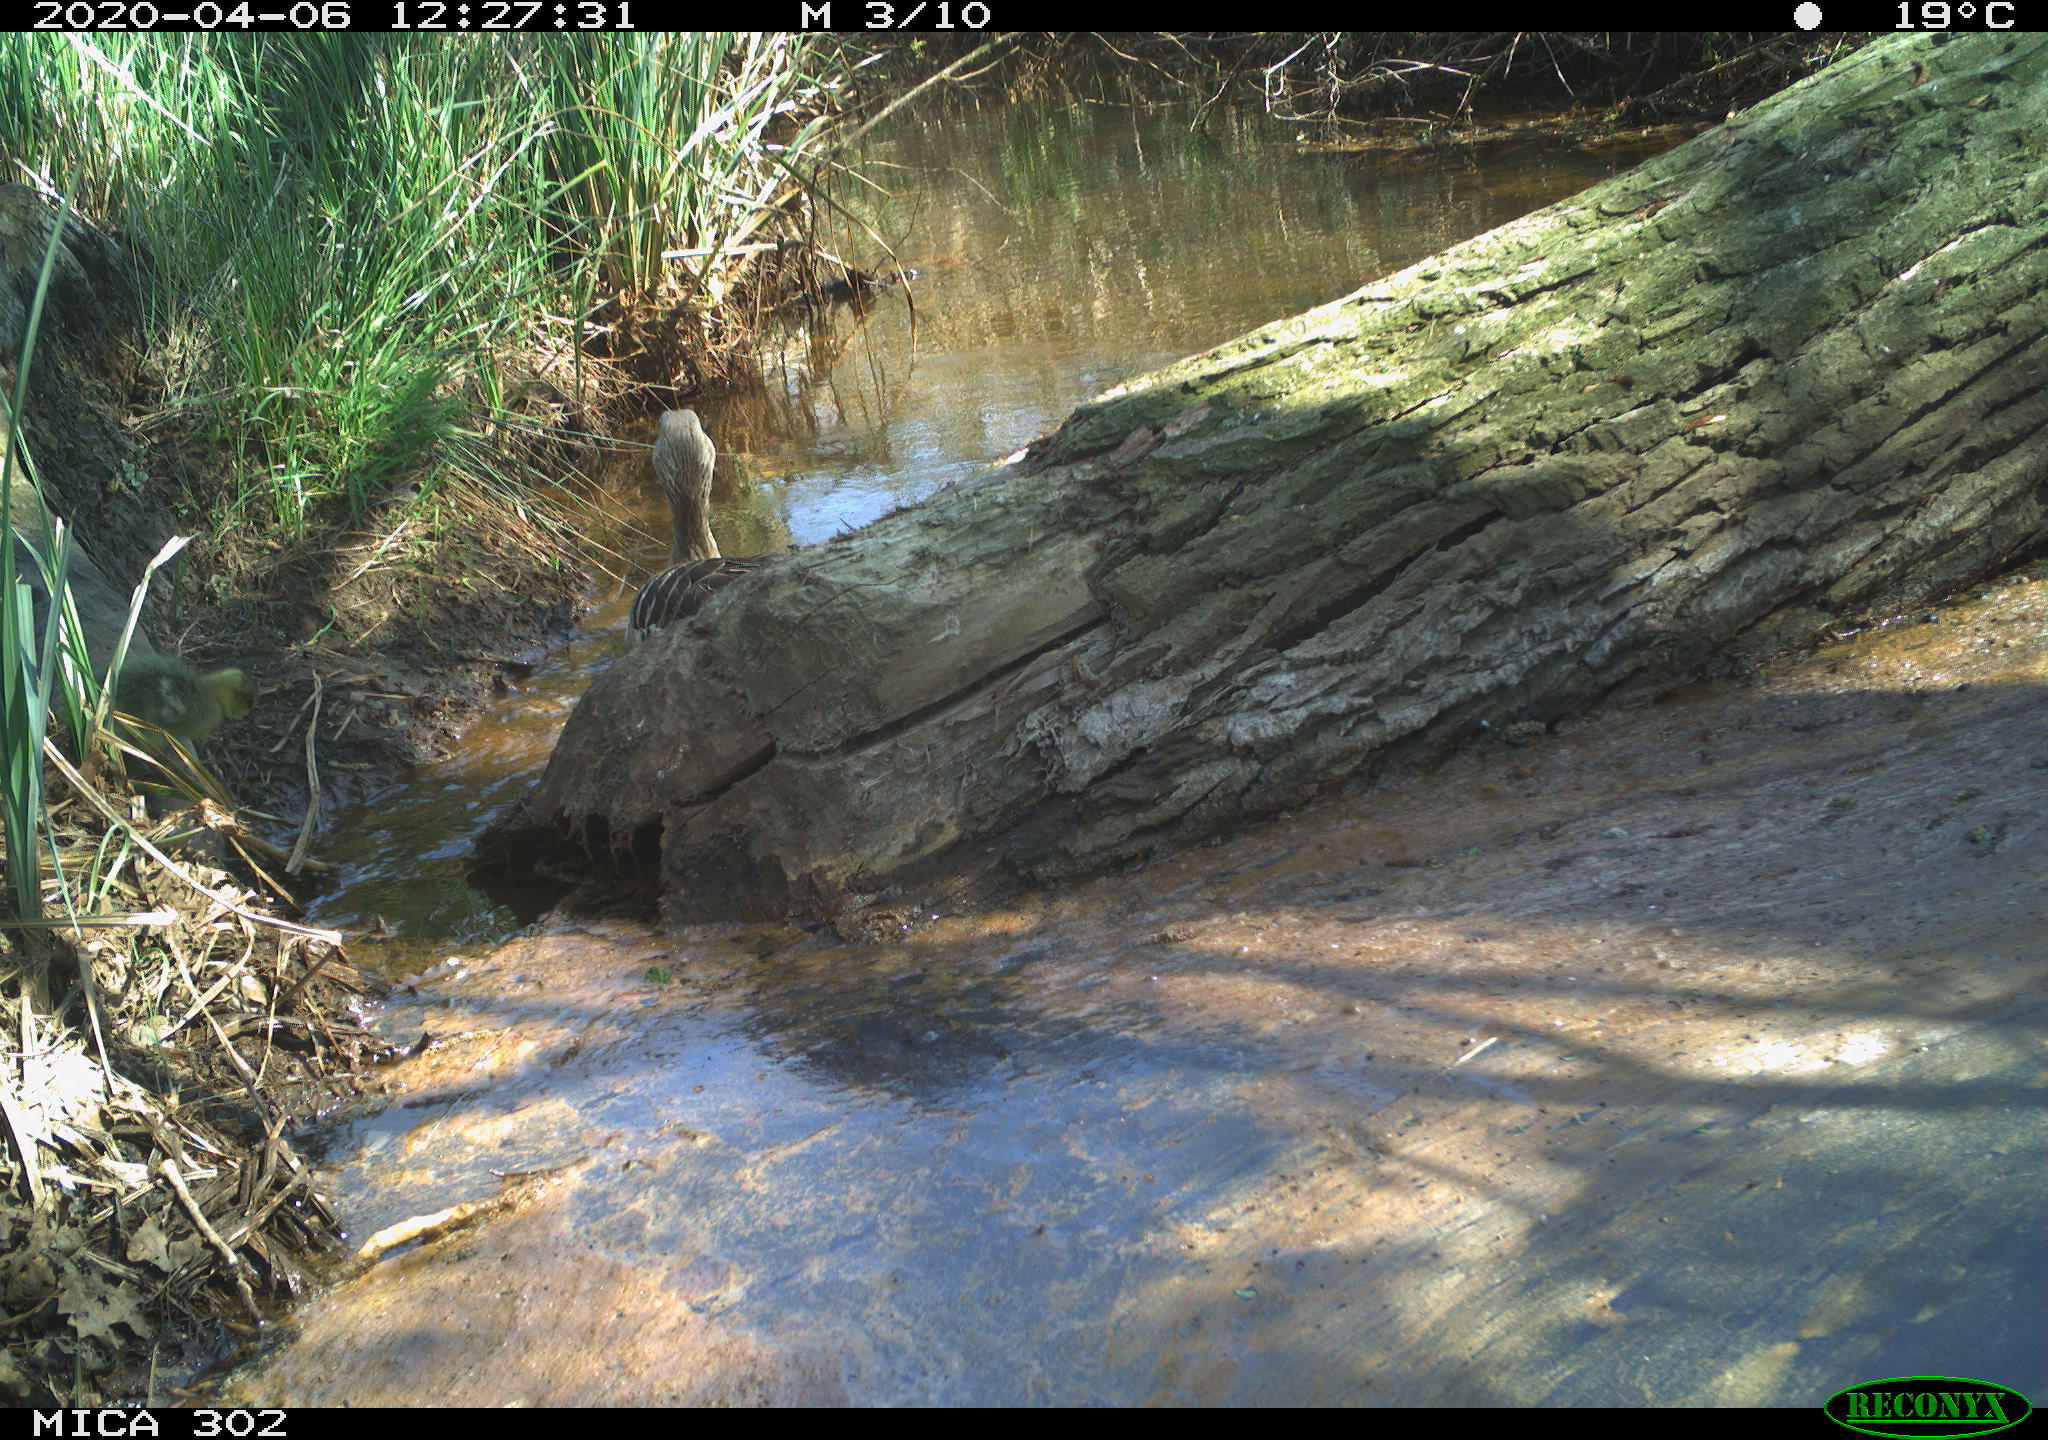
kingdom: Animalia
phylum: Chordata
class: Aves
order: Anseriformes
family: Anatidae
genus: Anser
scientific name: Anser anser
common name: Greylag goose
